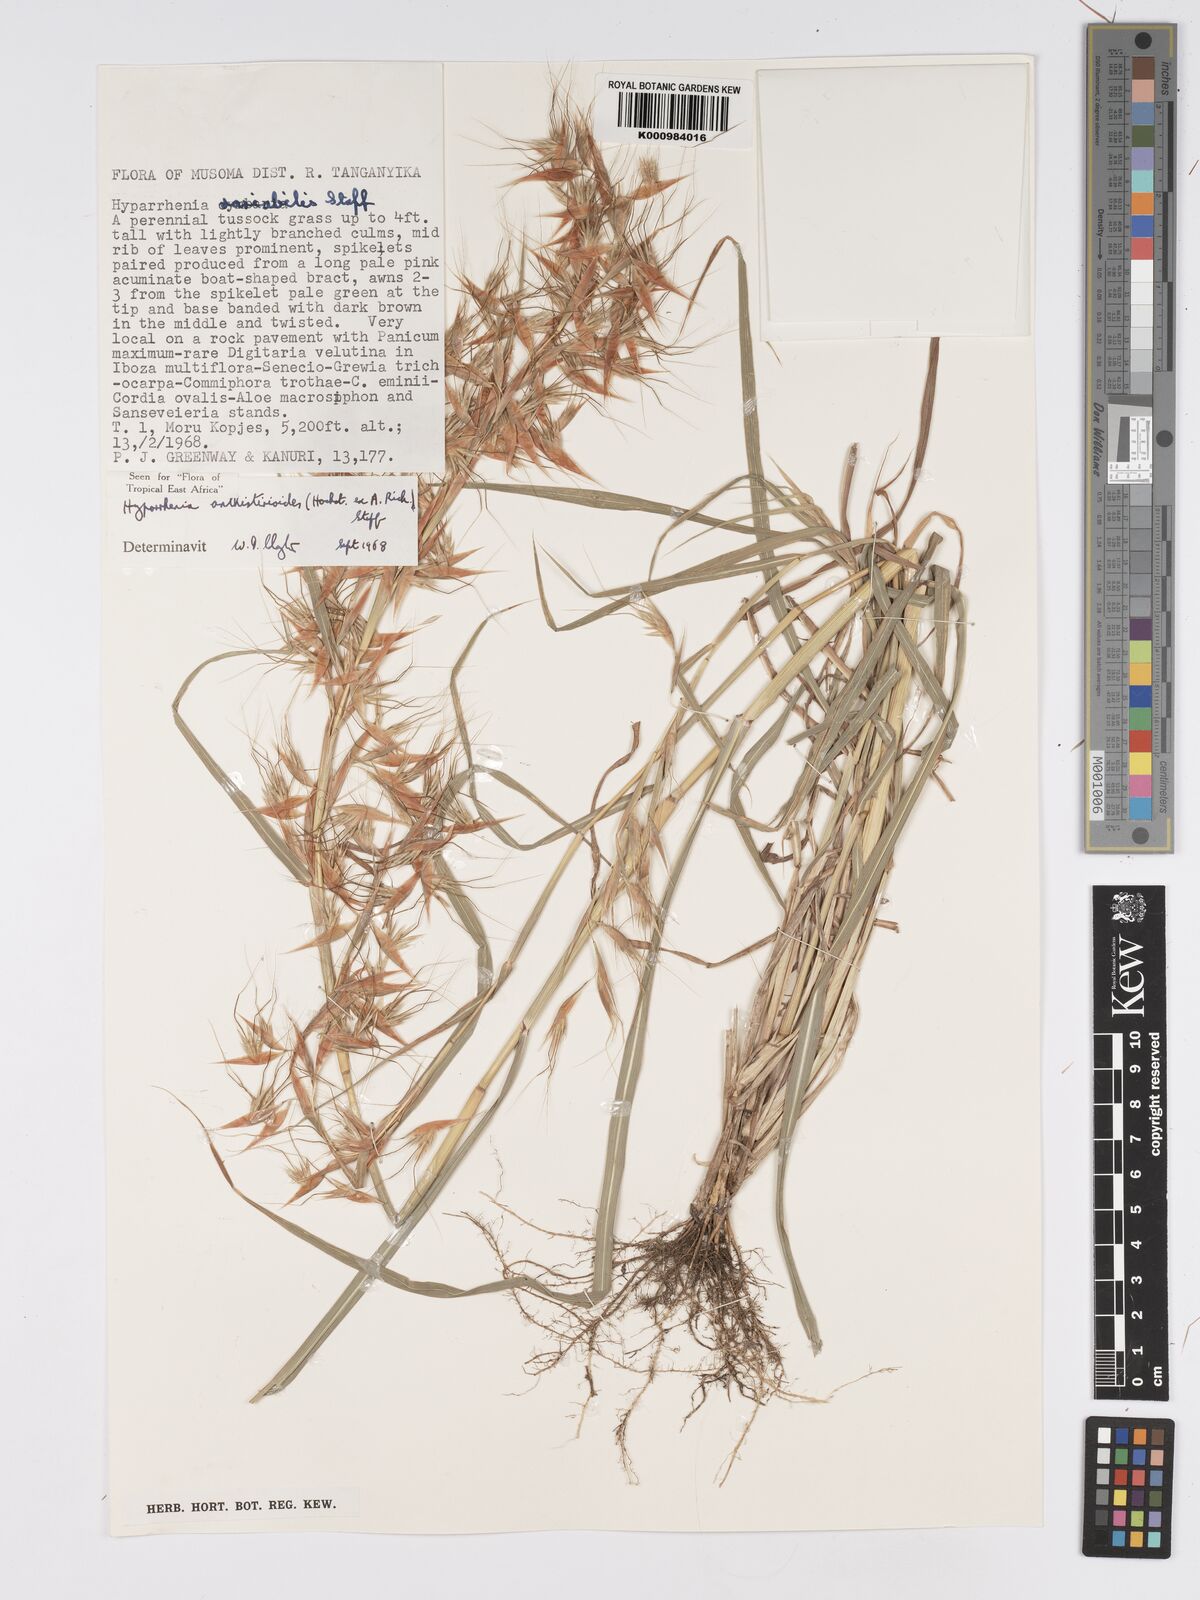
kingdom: Plantae
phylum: Tracheophyta
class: Liliopsida
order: Poales
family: Poaceae
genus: Hyparrhenia
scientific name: Hyparrhenia anthistirioides
